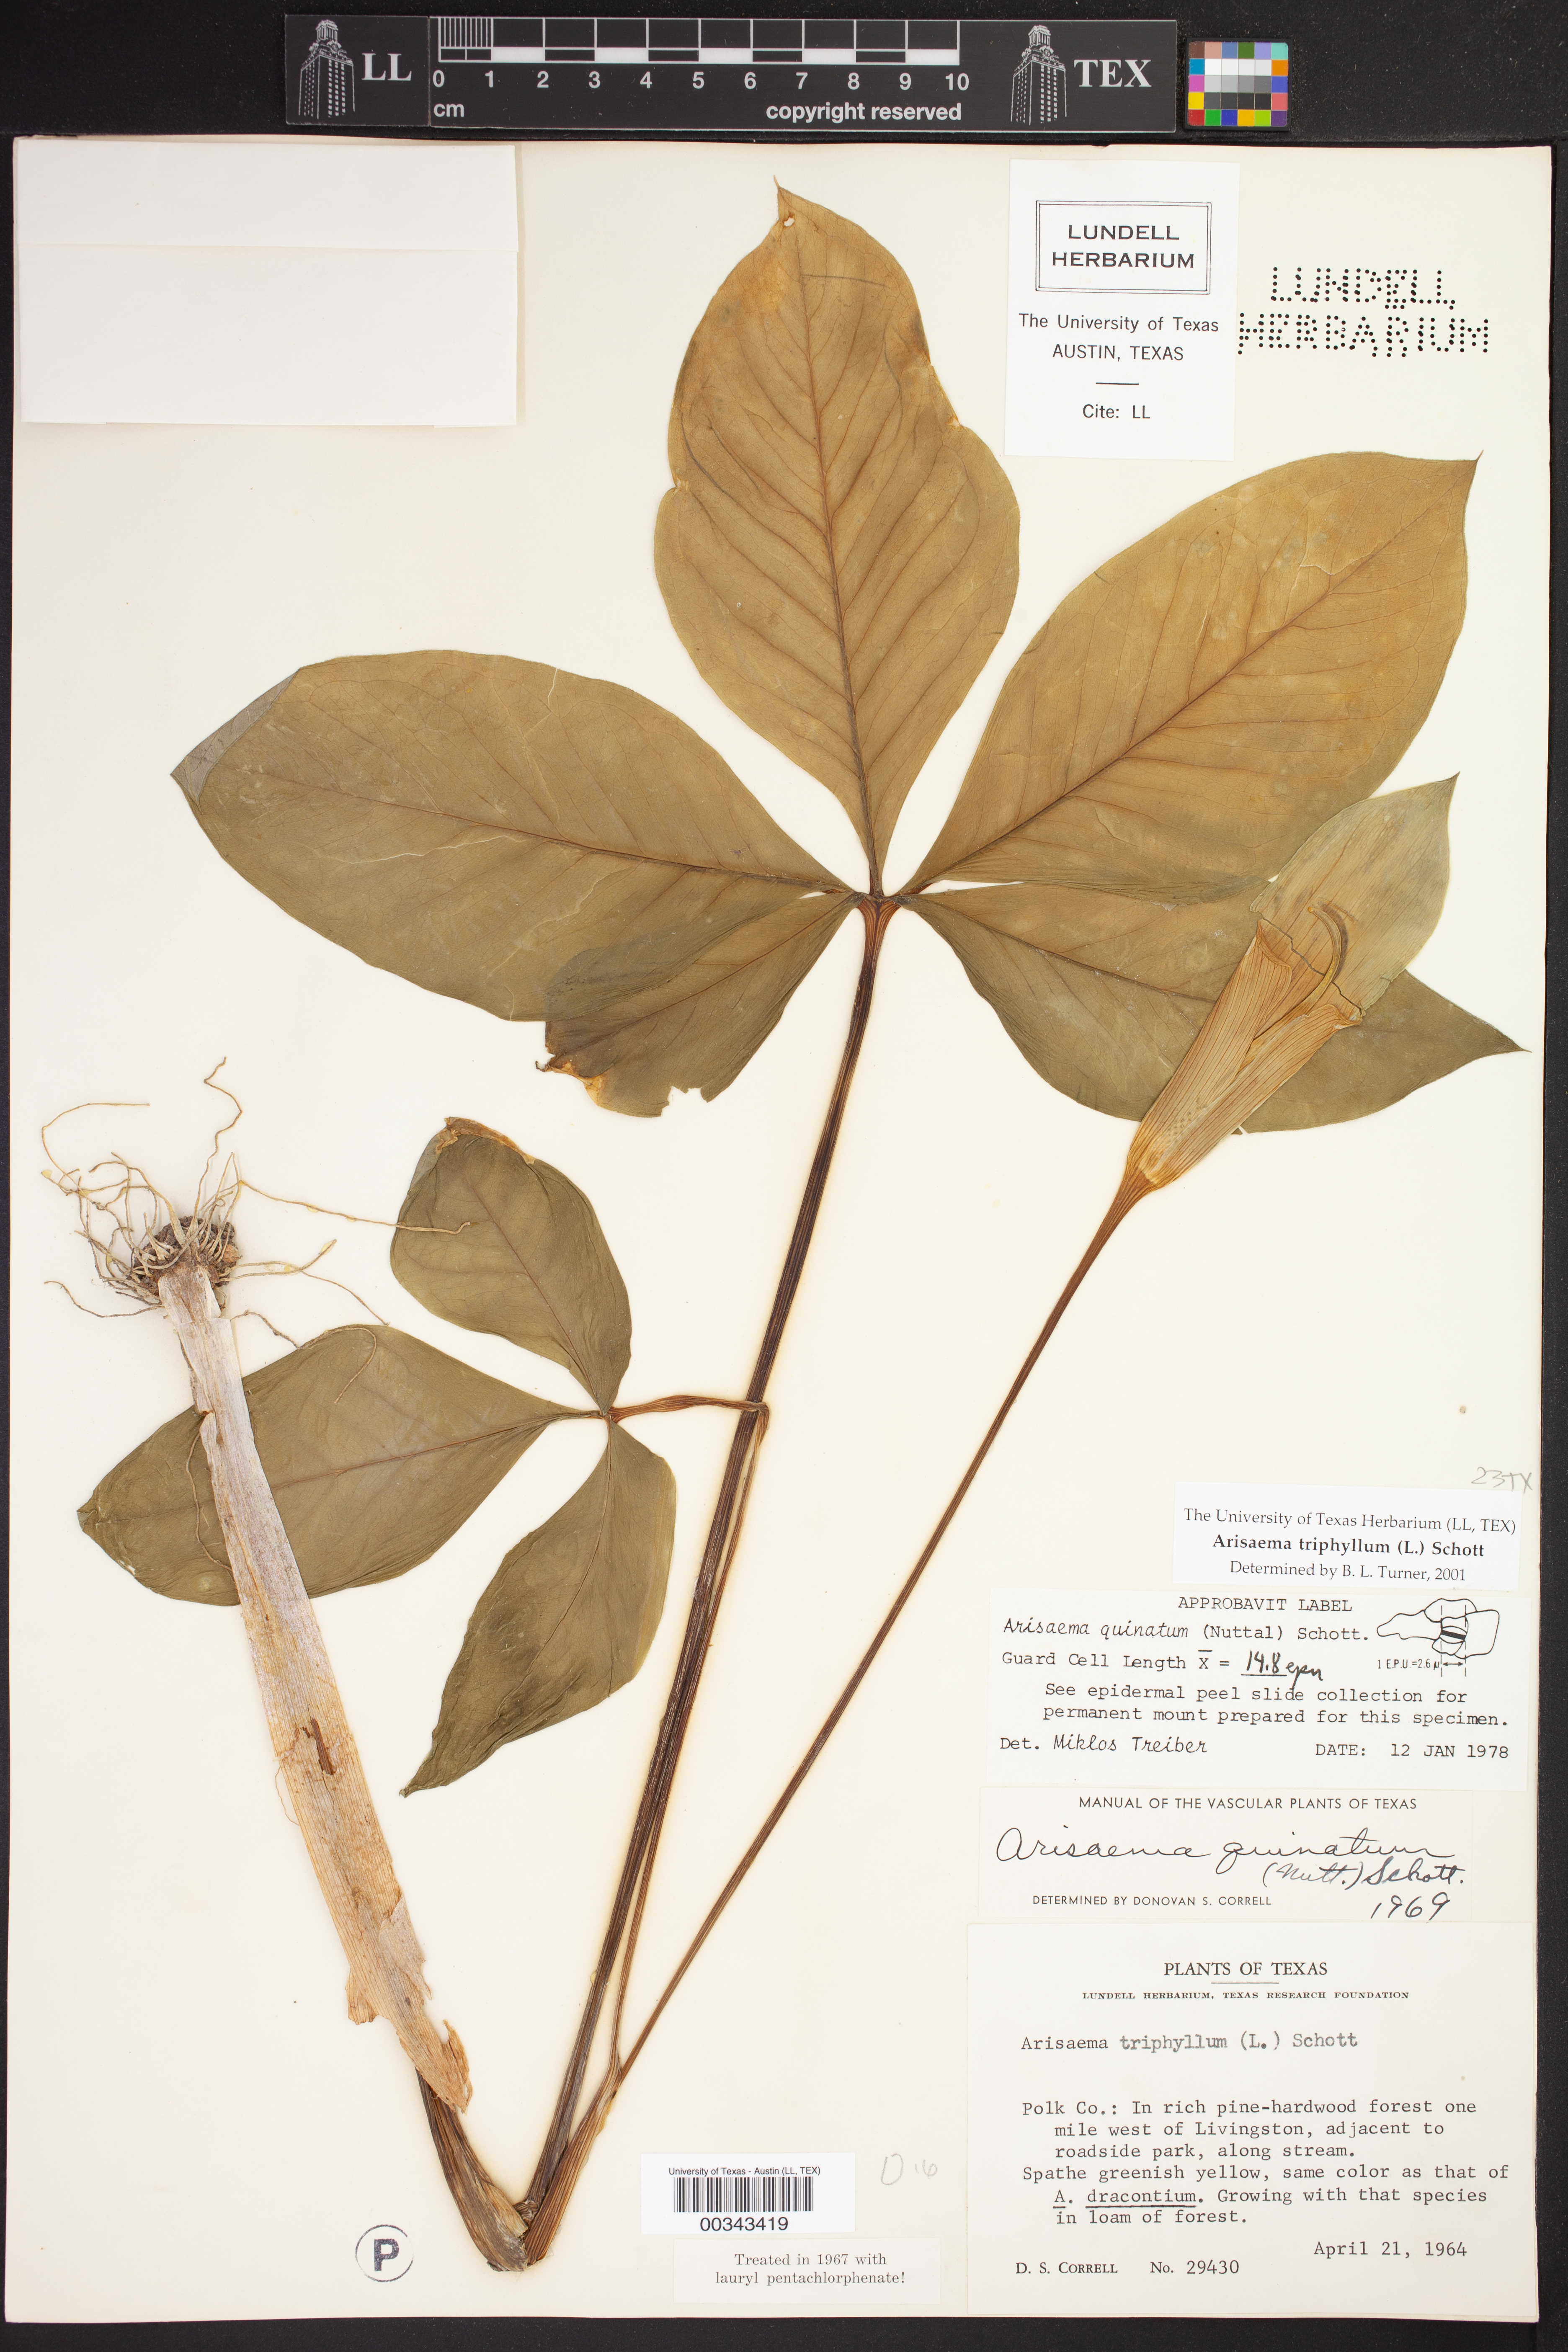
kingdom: Plantae
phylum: Tracheophyta
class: Liliopsida
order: Alismatales
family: Araceae
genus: Arisaema
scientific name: Arisaema triphyllum
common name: Jack-in-the-pulpit
